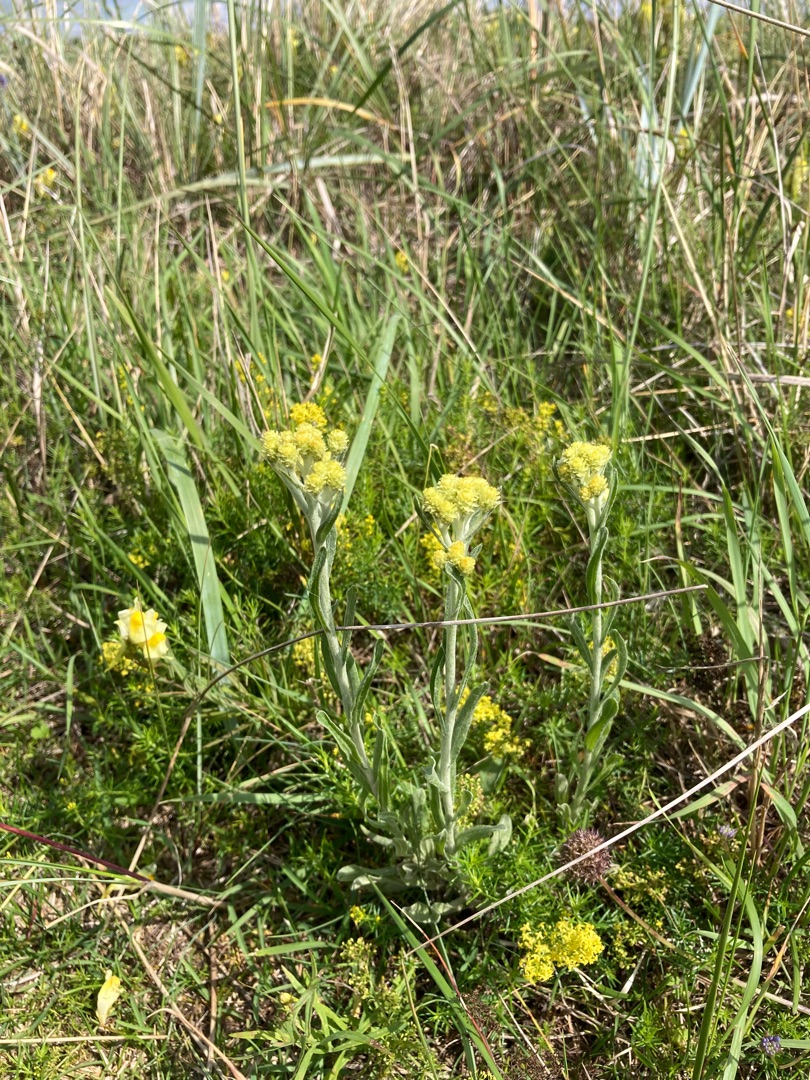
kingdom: Plantae
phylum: Tracheophyta
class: Magnoliopsida
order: Asterales
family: Asteraceae
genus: Helichrysum
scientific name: Helichrysum arenarium
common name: Gul evighedsblomst
